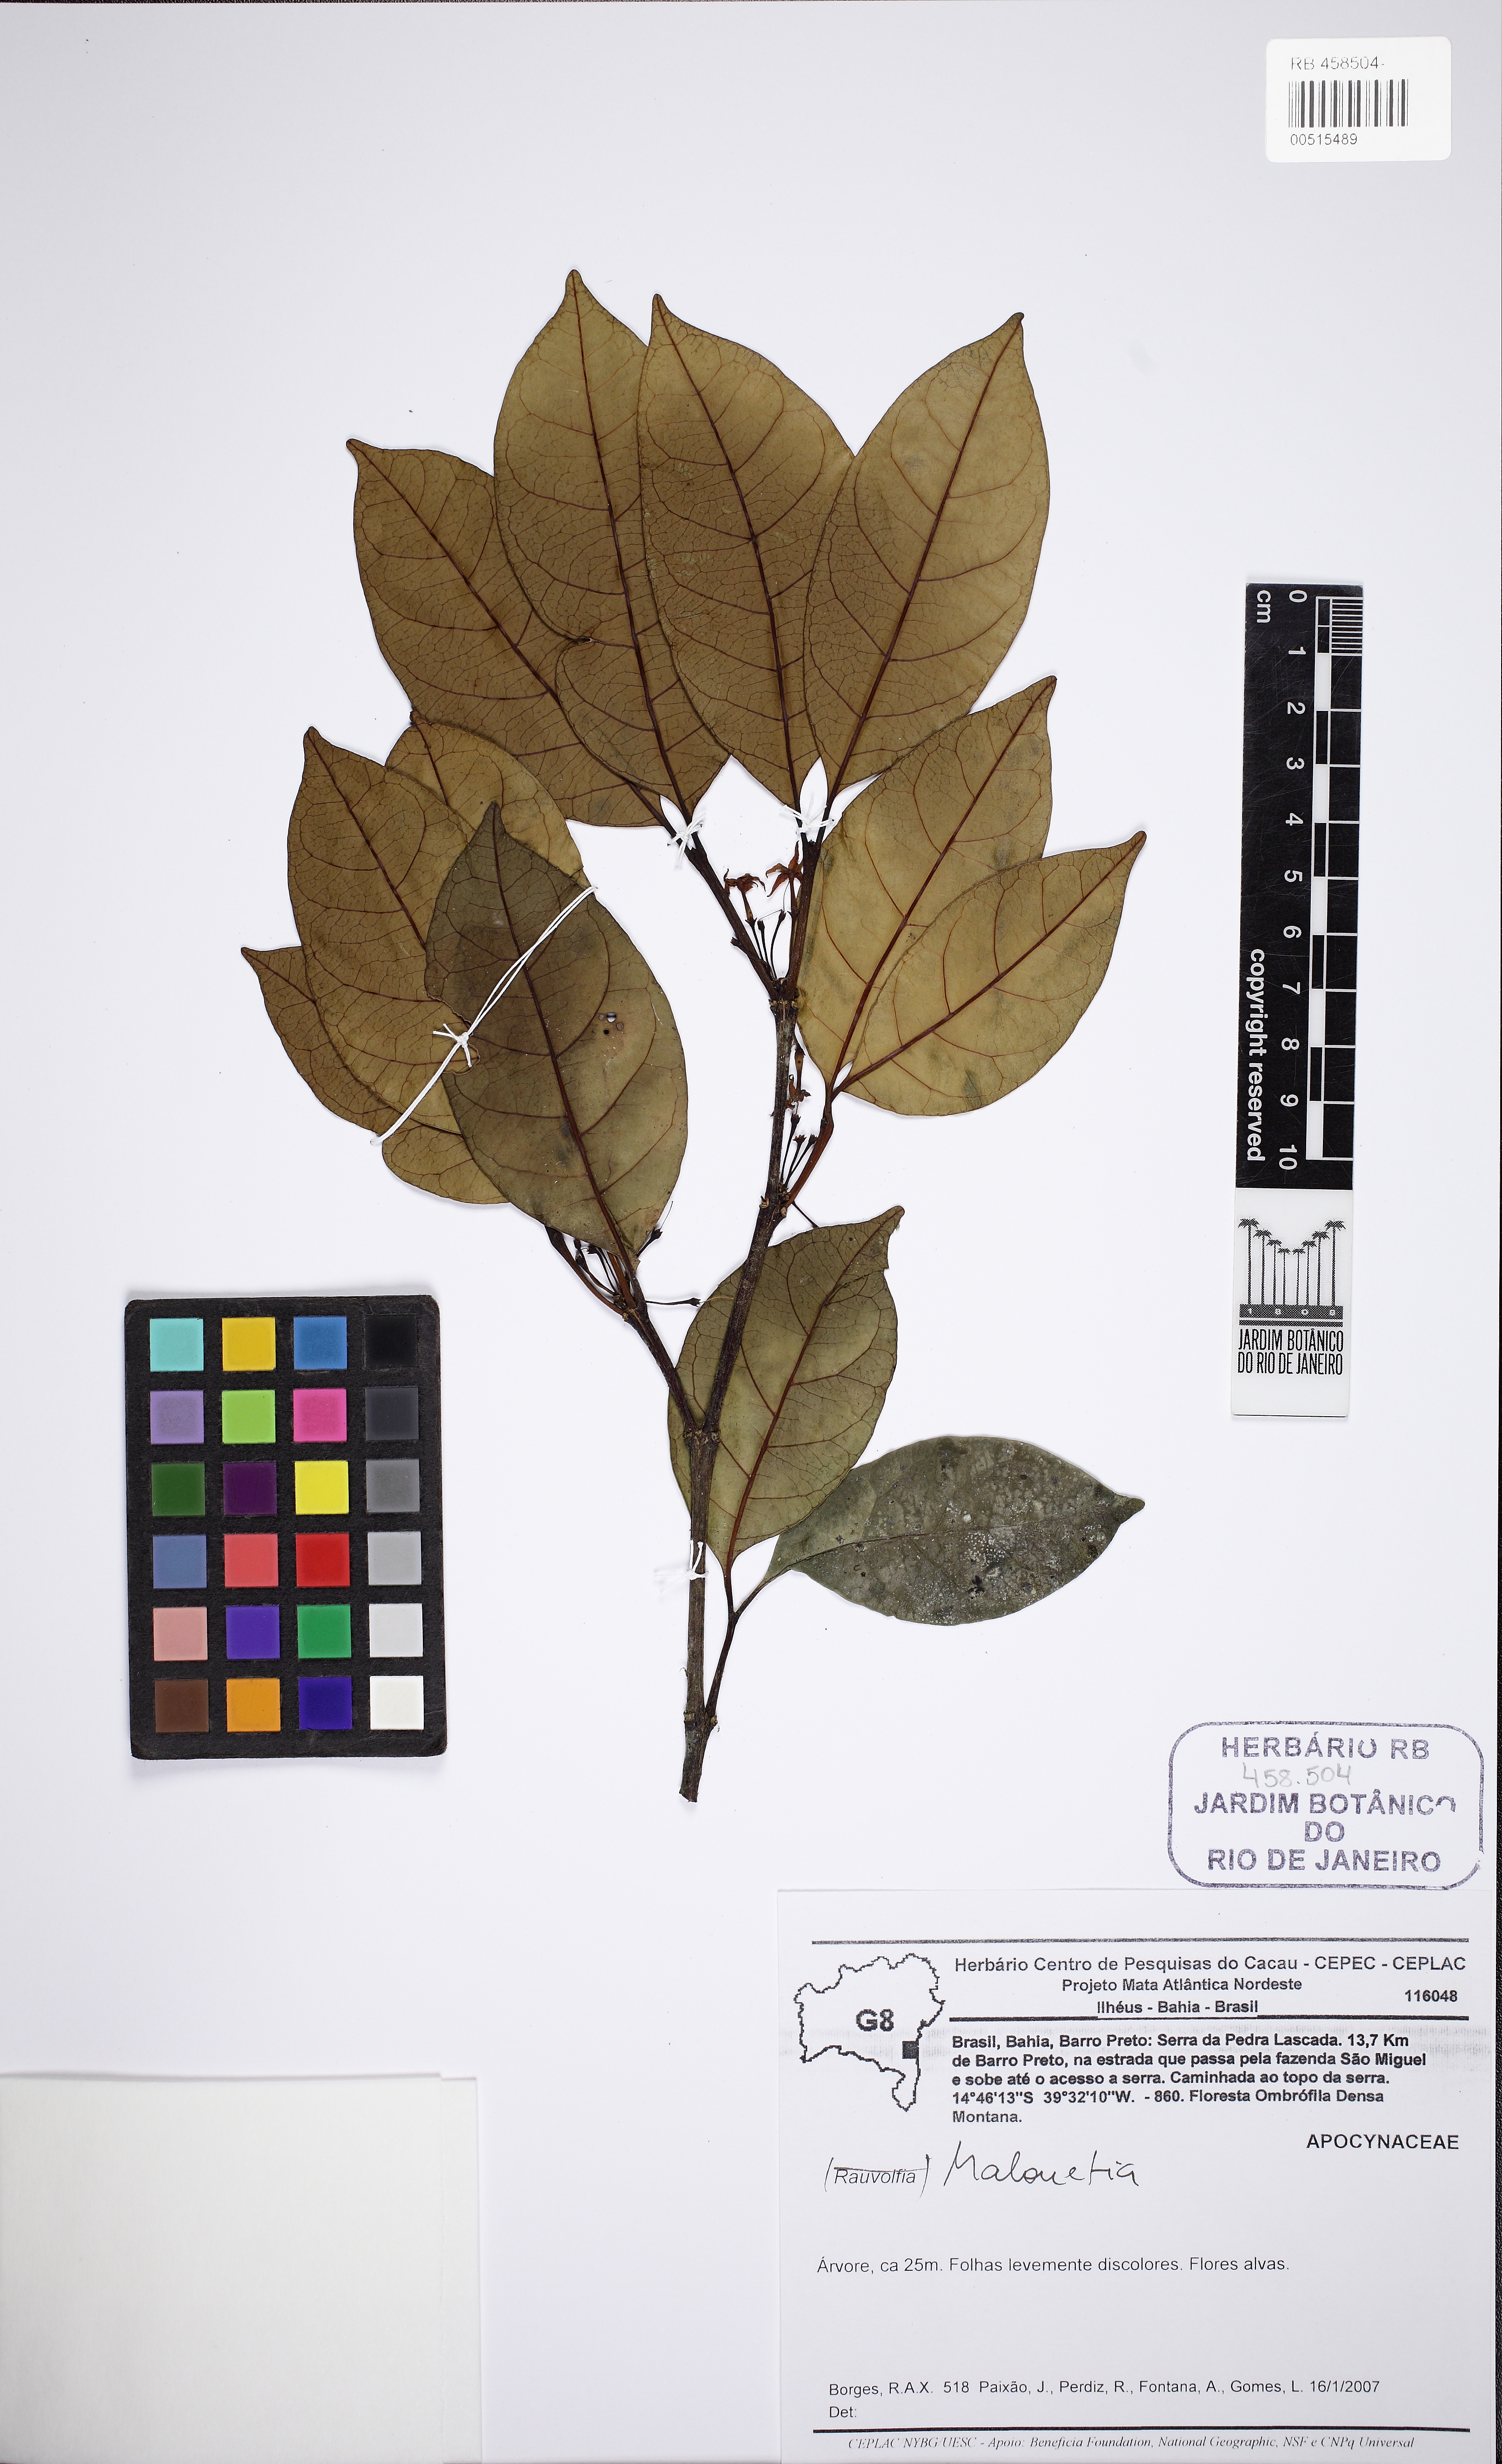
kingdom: Plantae
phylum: Tracheophyta
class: Magnoliopsida
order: Gentianales
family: Apocynaceae
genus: Malouetia
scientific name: Malouetia
